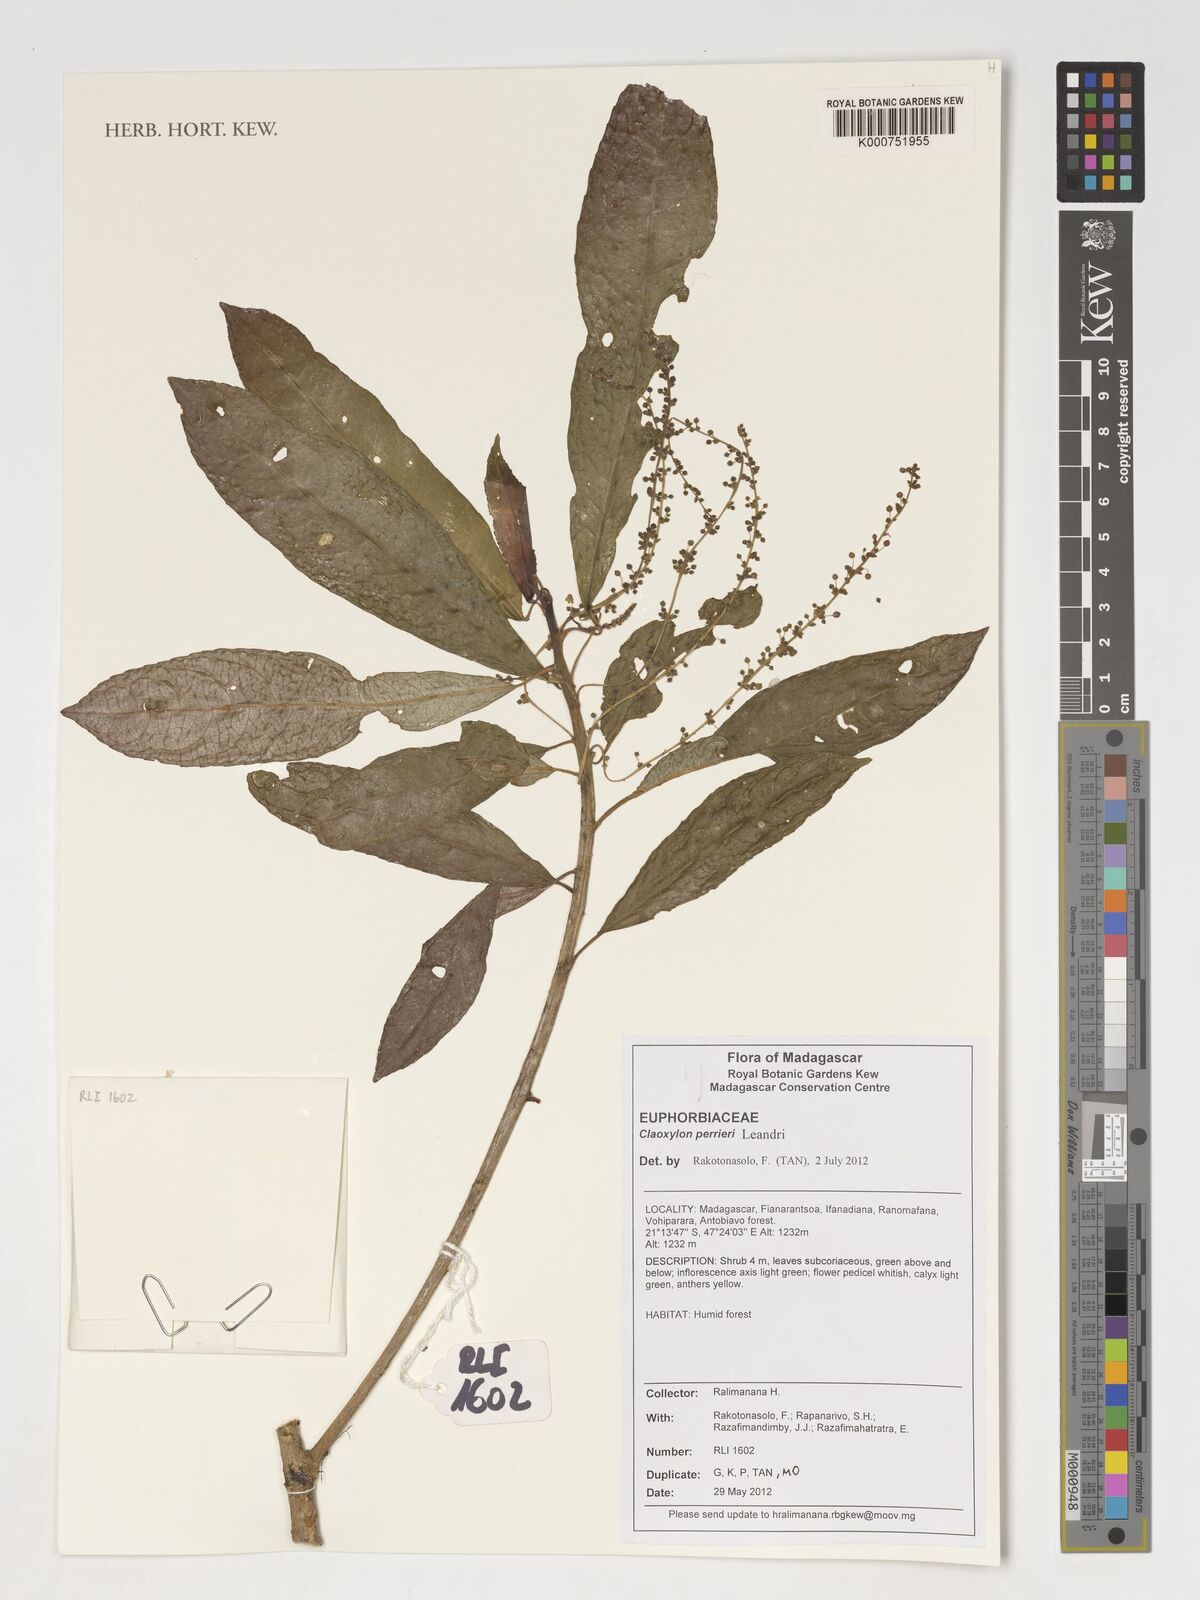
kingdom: Plantae
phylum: Tracheophyta
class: Magnoliopsida
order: Malpighiales
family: Euphorbiaceae
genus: Claoxylon
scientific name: Claoxylon perrieri
